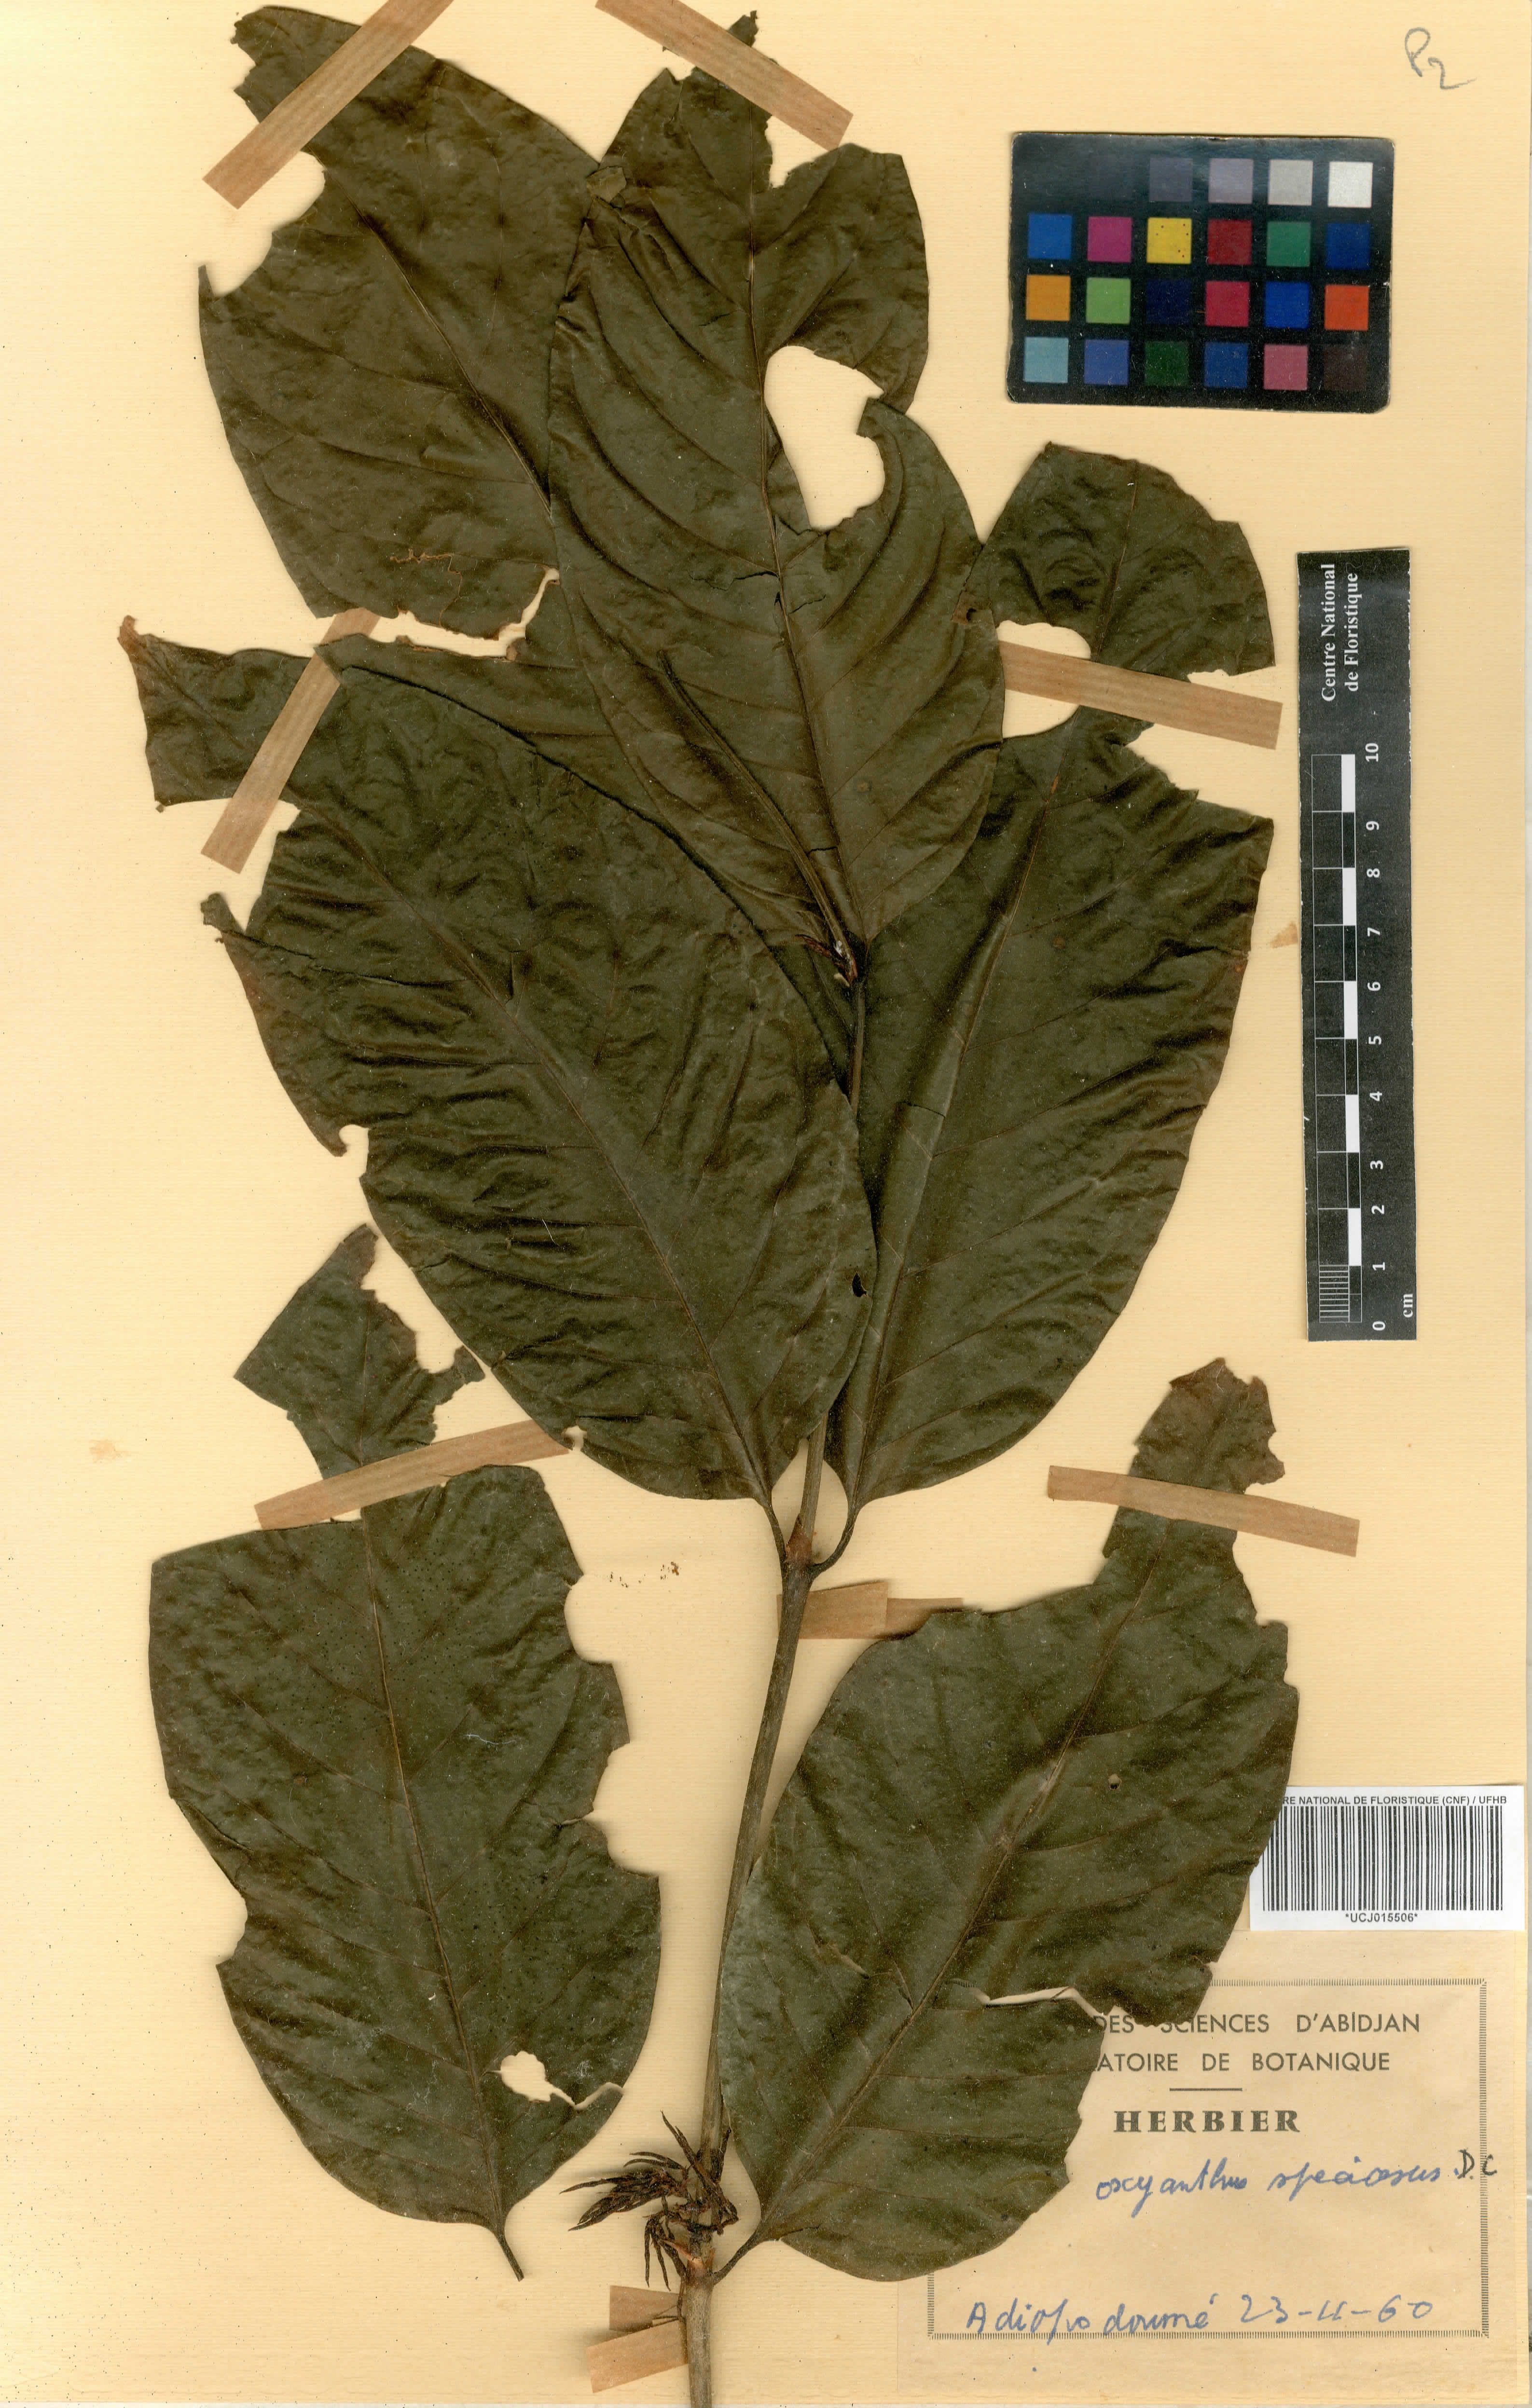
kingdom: Plantae
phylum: Tracheophyta
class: Magnoliopsida
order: Gentianales
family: Rubiaceae
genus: Oxyanthus
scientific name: Oxyanthus speciosus
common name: Whipstick loquat
